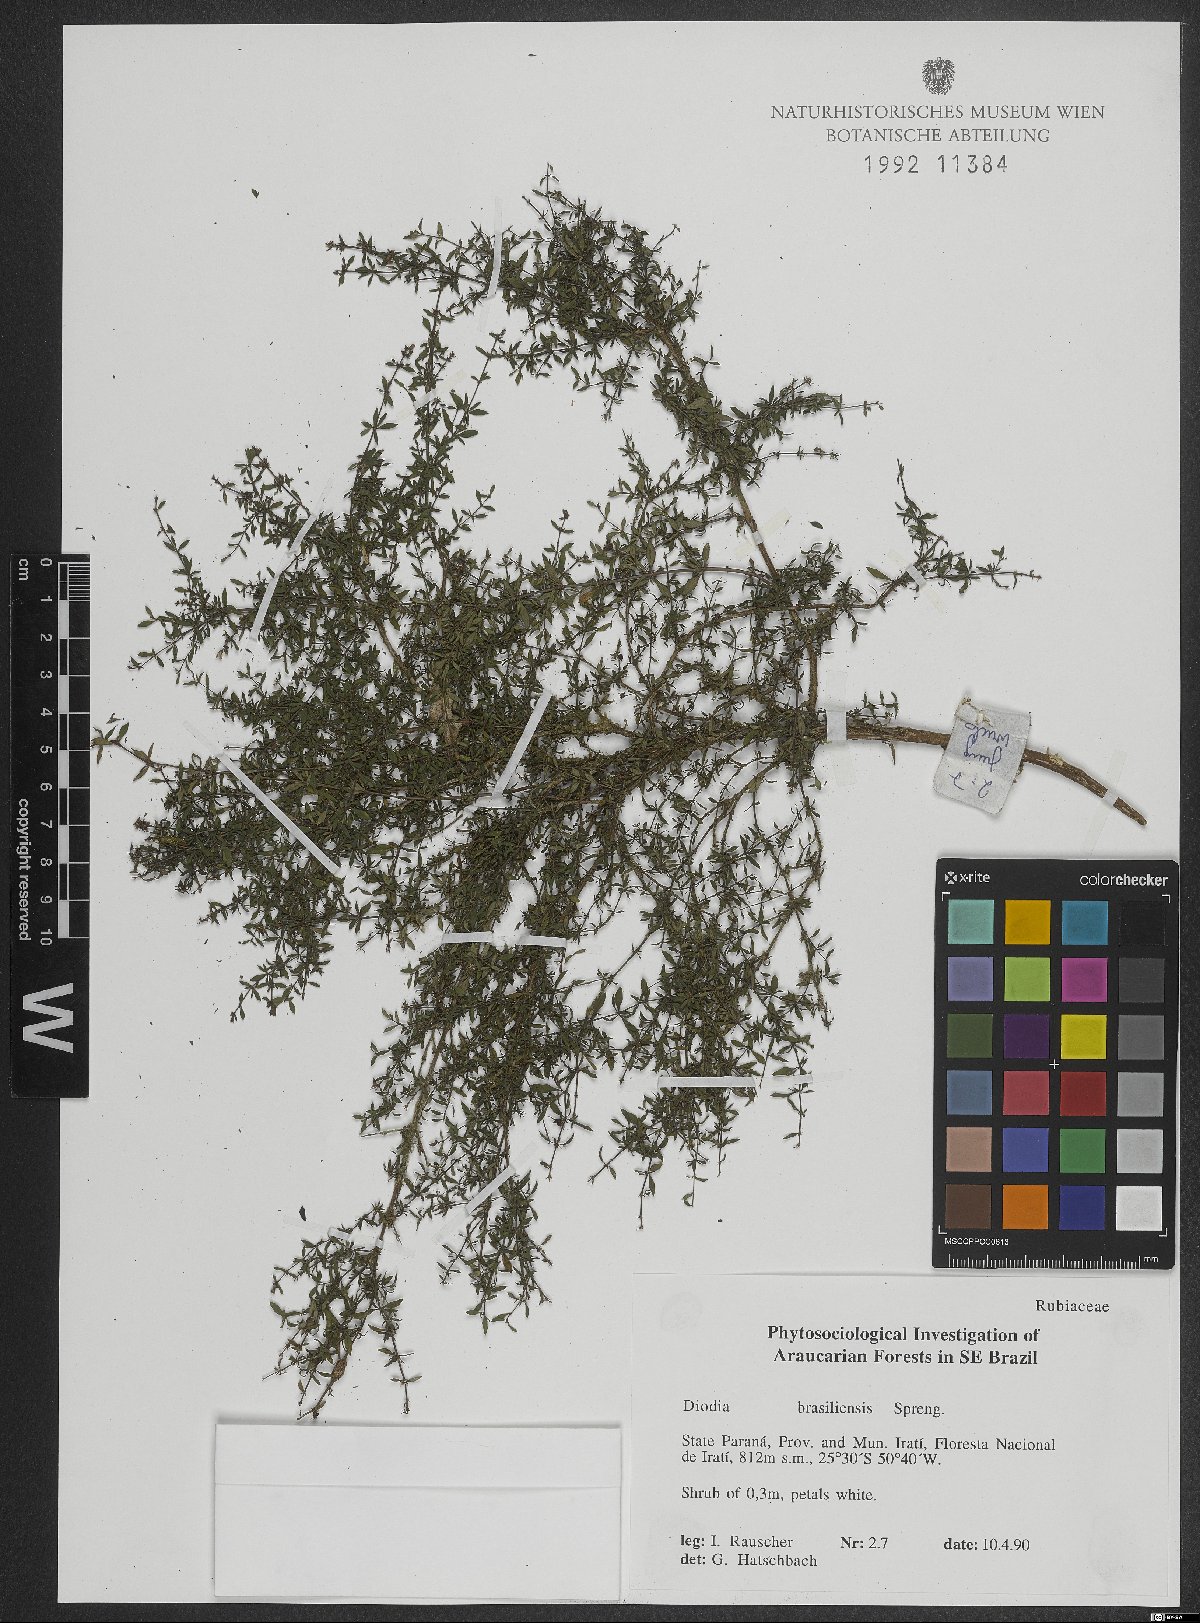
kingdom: Plantae
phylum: Tracheophyta
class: Magnoliopsida
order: Gentianales
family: Rubiaceae
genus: Galianthe
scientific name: Galianthe brasiliensis
